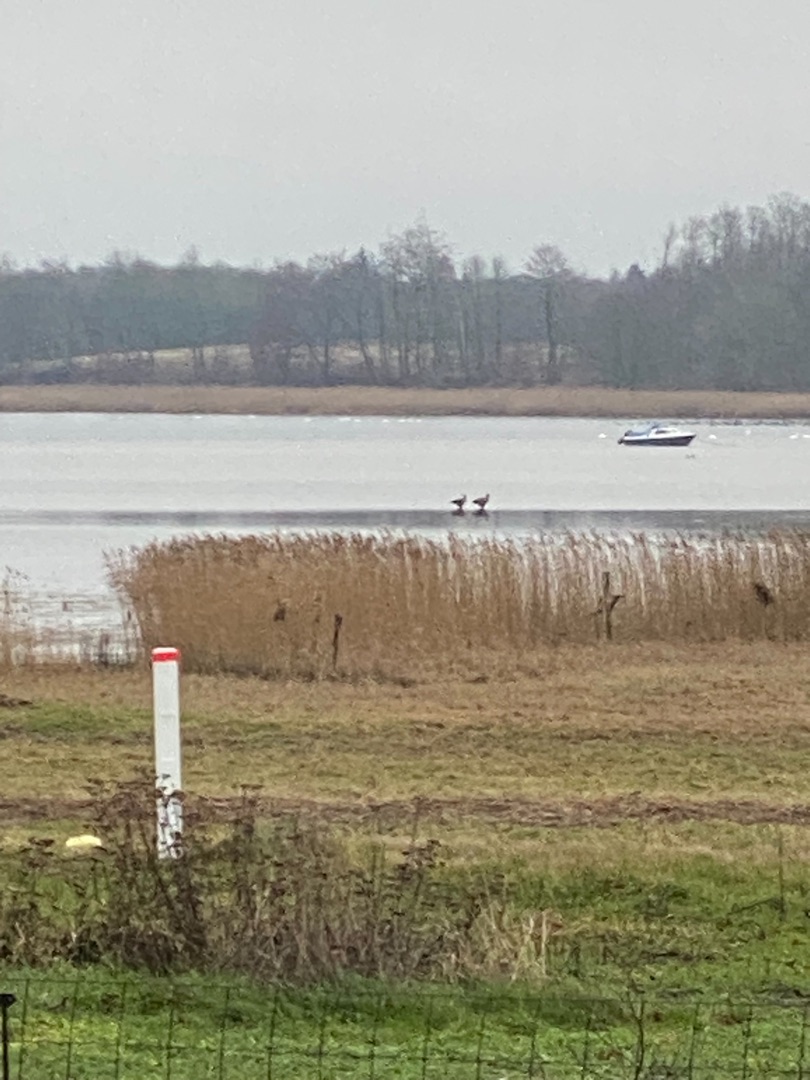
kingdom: Animalia
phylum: Chordata
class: Aves
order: Accipitriformes
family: Accipitridae
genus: Haliaeetus
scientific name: Haliaeetus albicilla
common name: Havørn
